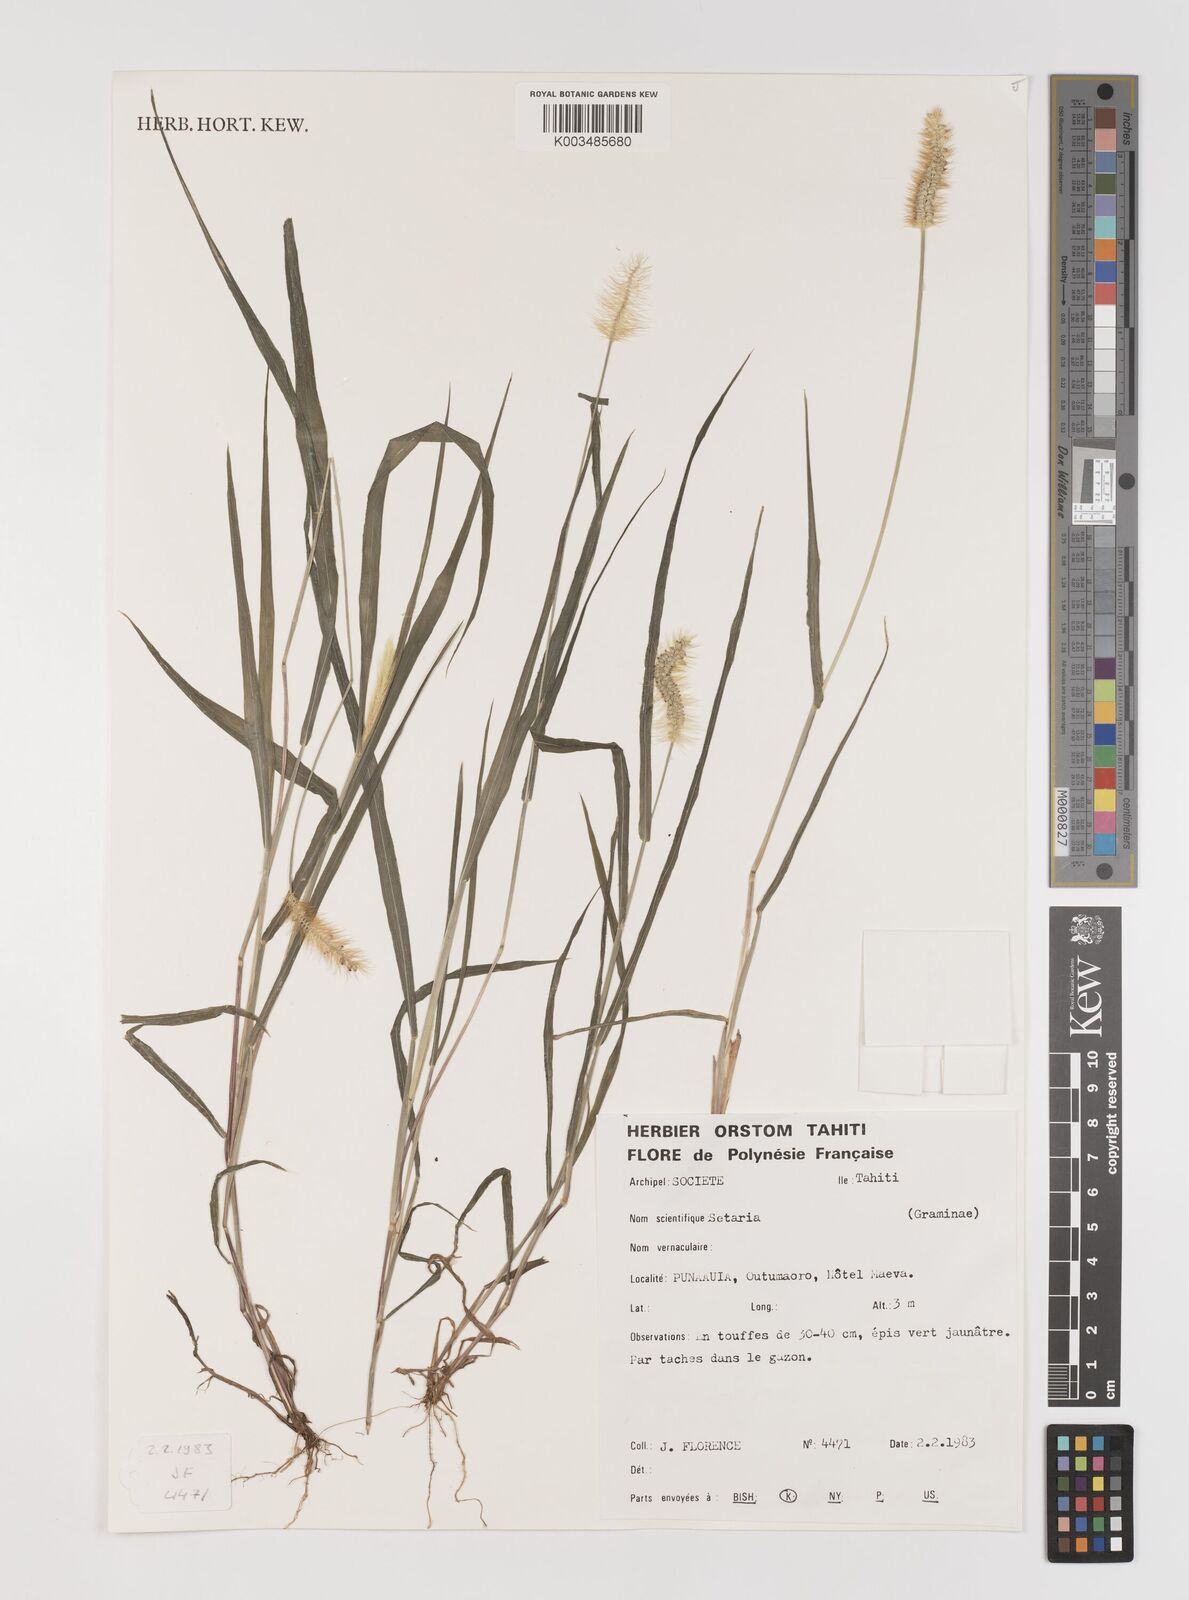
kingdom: Plantae
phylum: Tracheophyta
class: Liliopsida
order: Poales
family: Poaceae
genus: Setaria
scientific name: Setaria pumila
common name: Yellow bristle-grass
